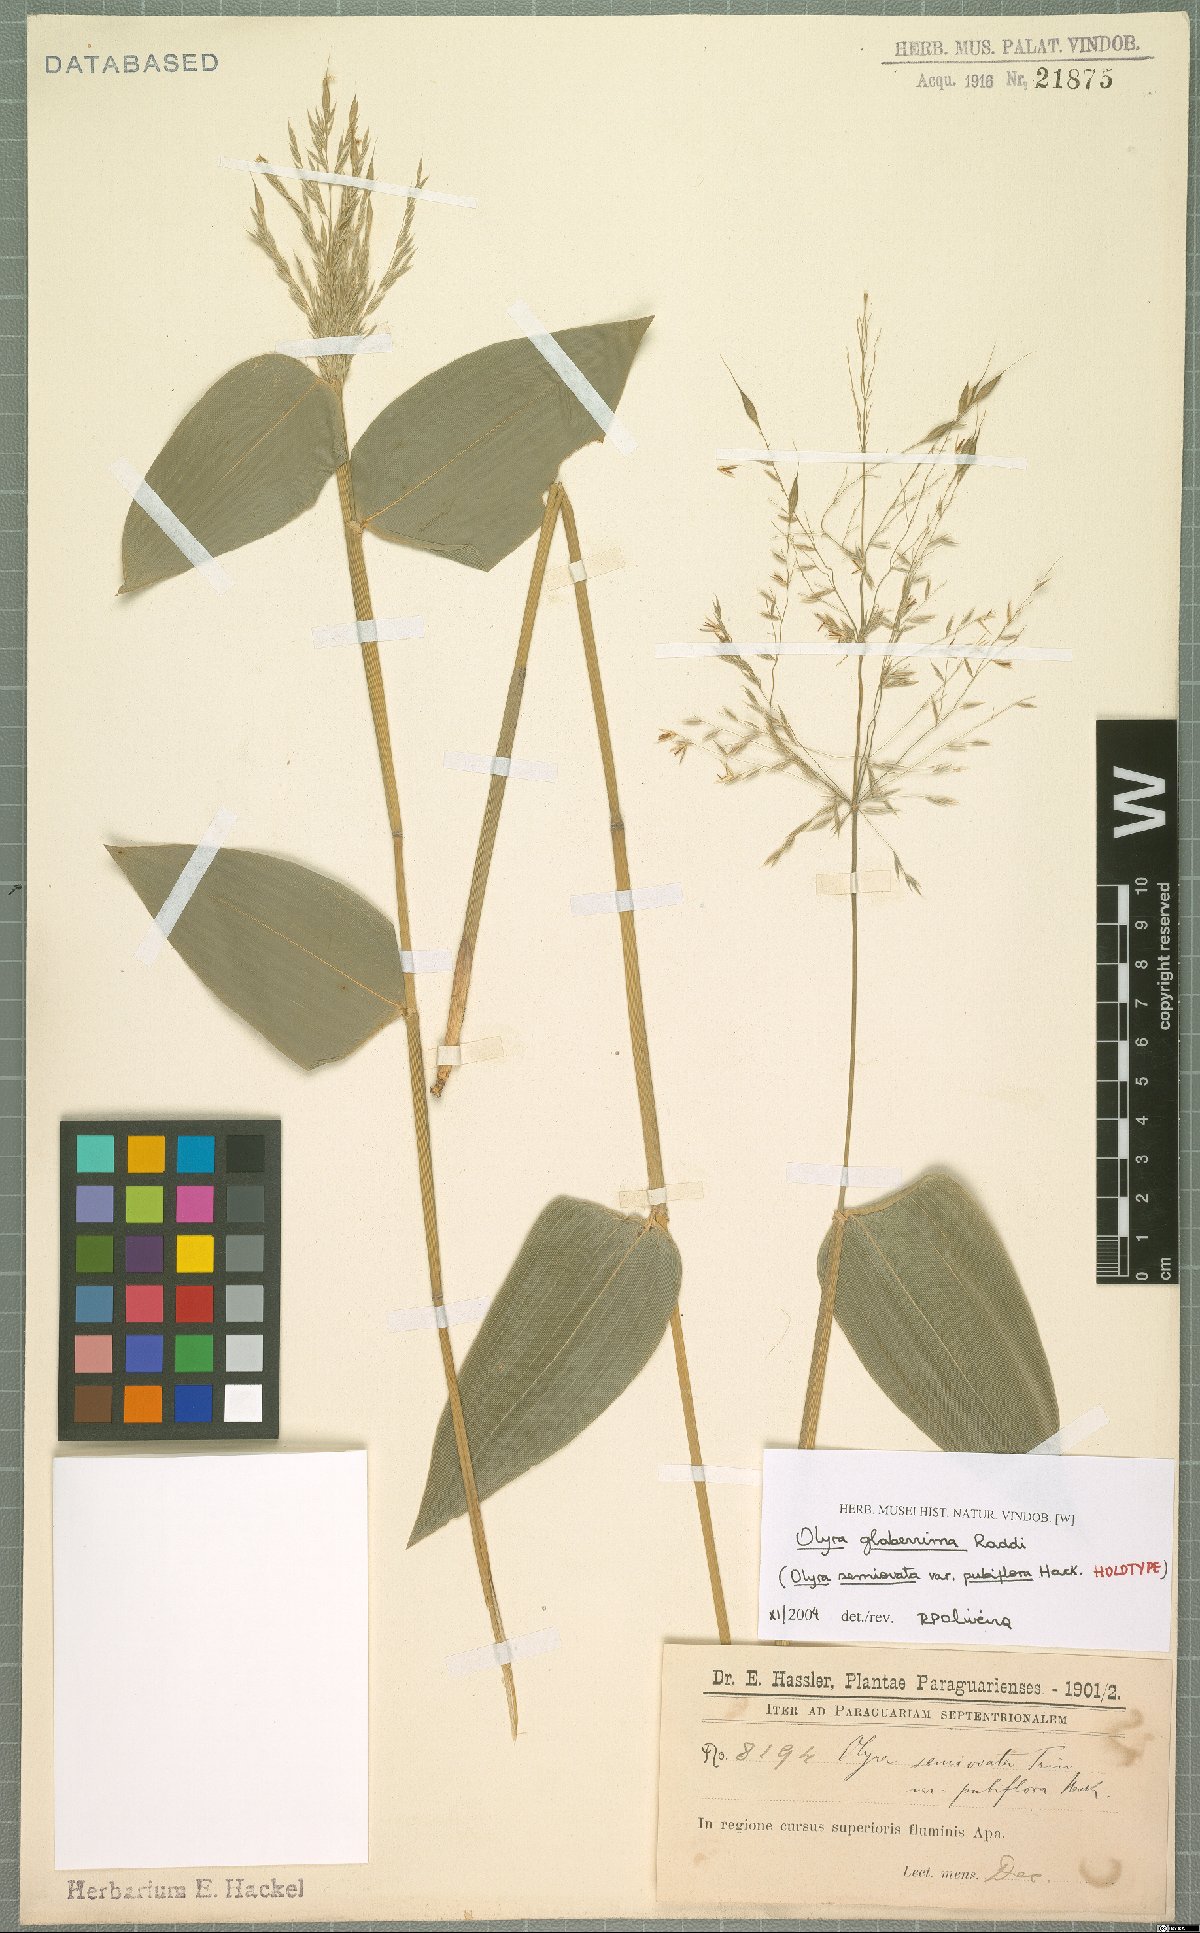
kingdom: Plantae
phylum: Tracheophyta
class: Liliopsida
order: Poales
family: Poaceae
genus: Olyra
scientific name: Olyra glaberrima
